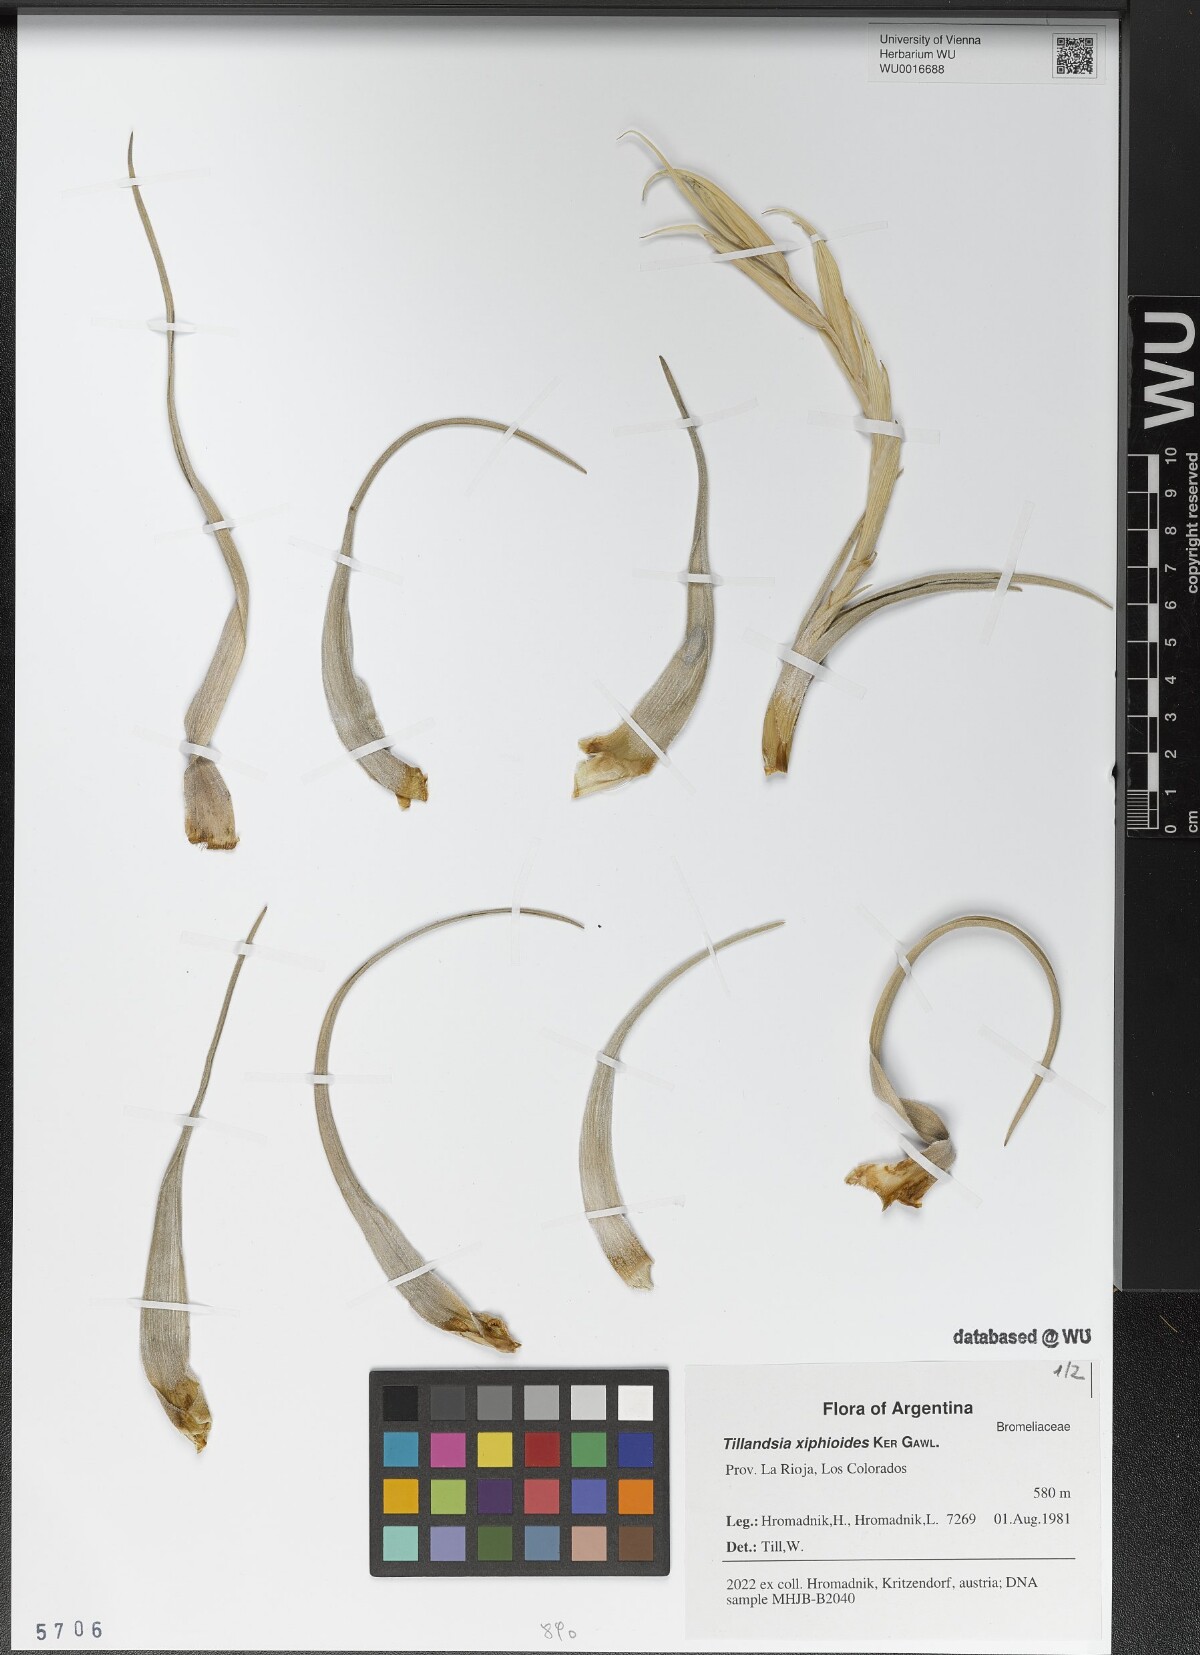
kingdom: Plantae
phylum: Tracheophyta
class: Liliopsida
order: Poales
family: Bromeliaceae
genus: Tillandsia
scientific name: Tillandsia xiphioides
